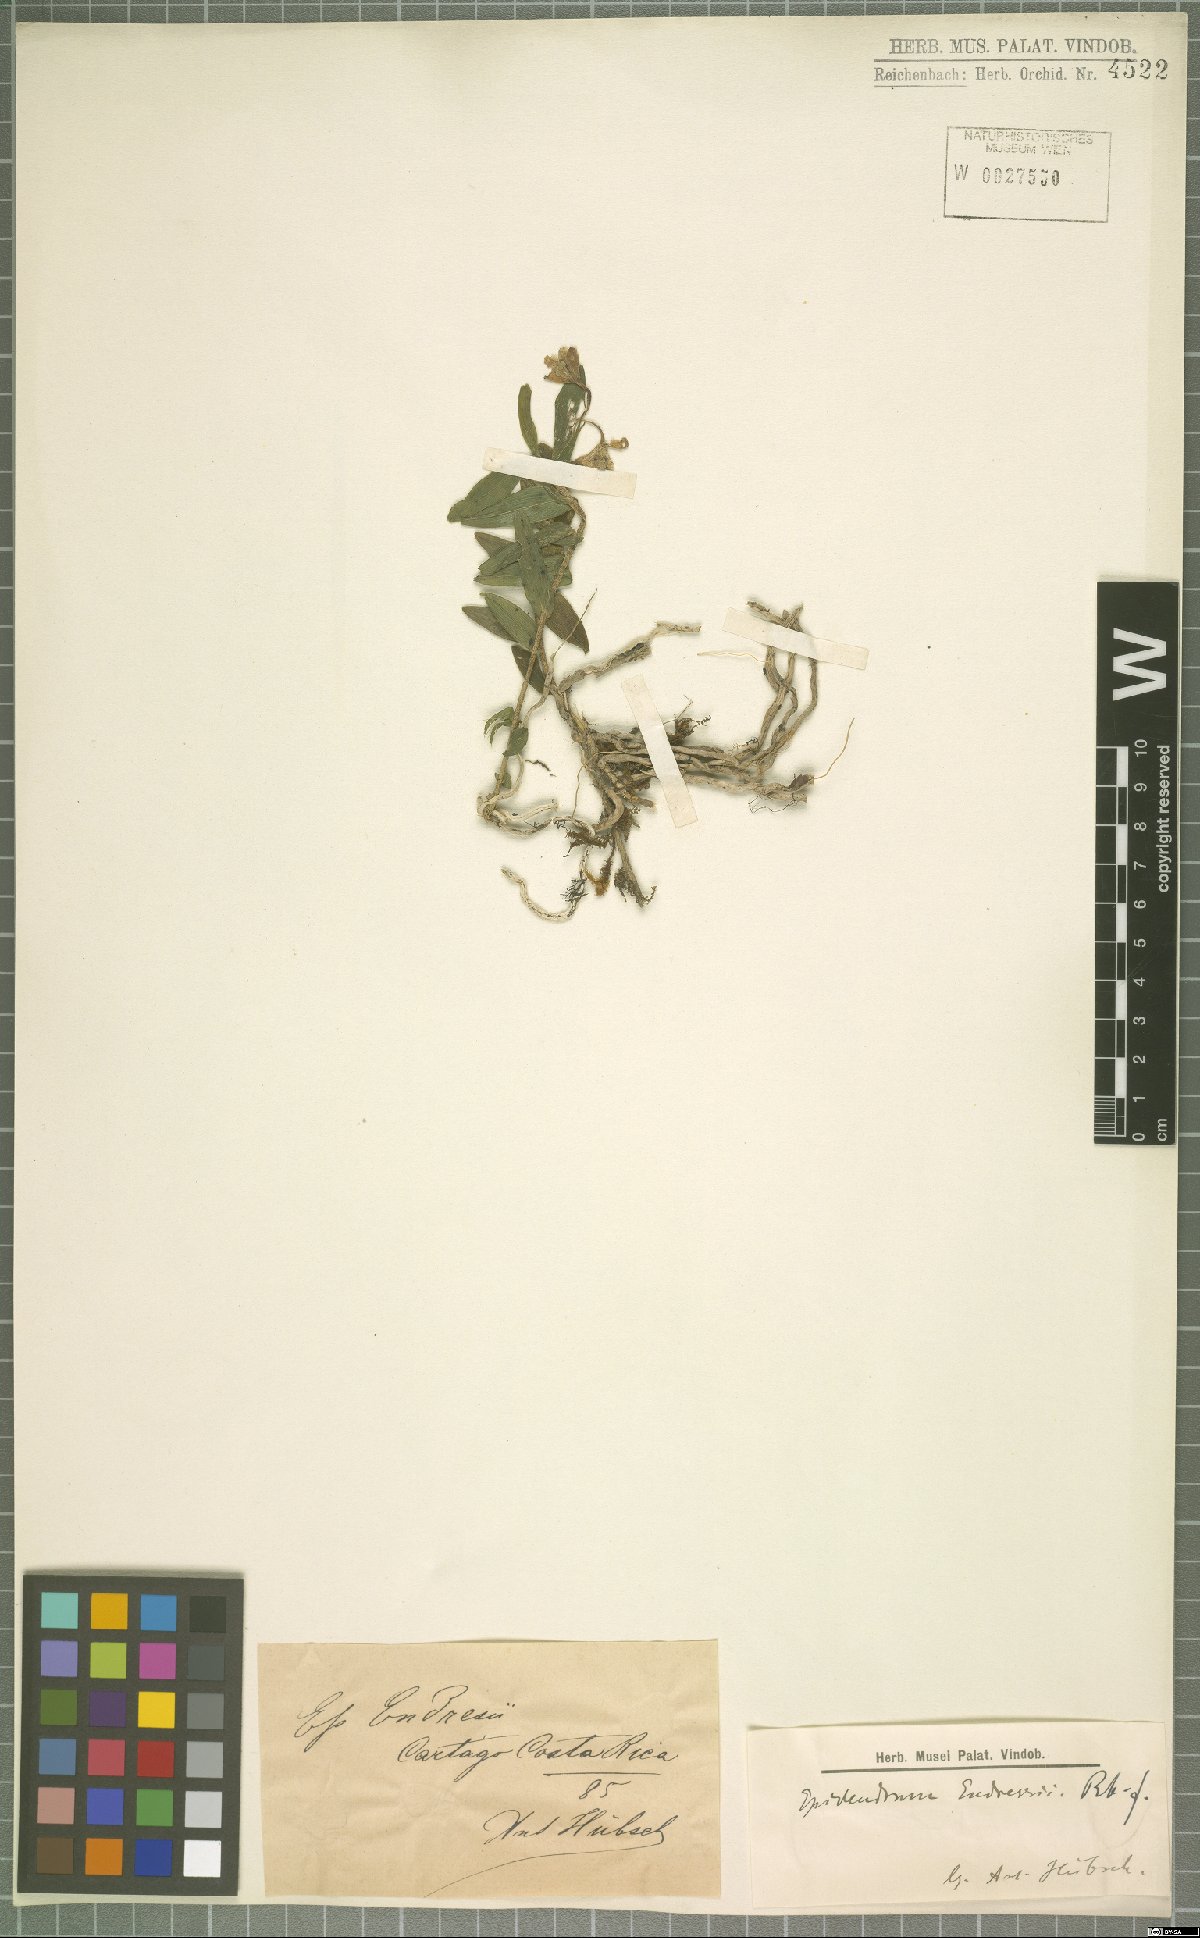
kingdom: Plantae
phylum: Tracheophyta
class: Liliopsida
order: Asparagales
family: Orchidaceae
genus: Epidendrum
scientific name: Epidendrum endresii
